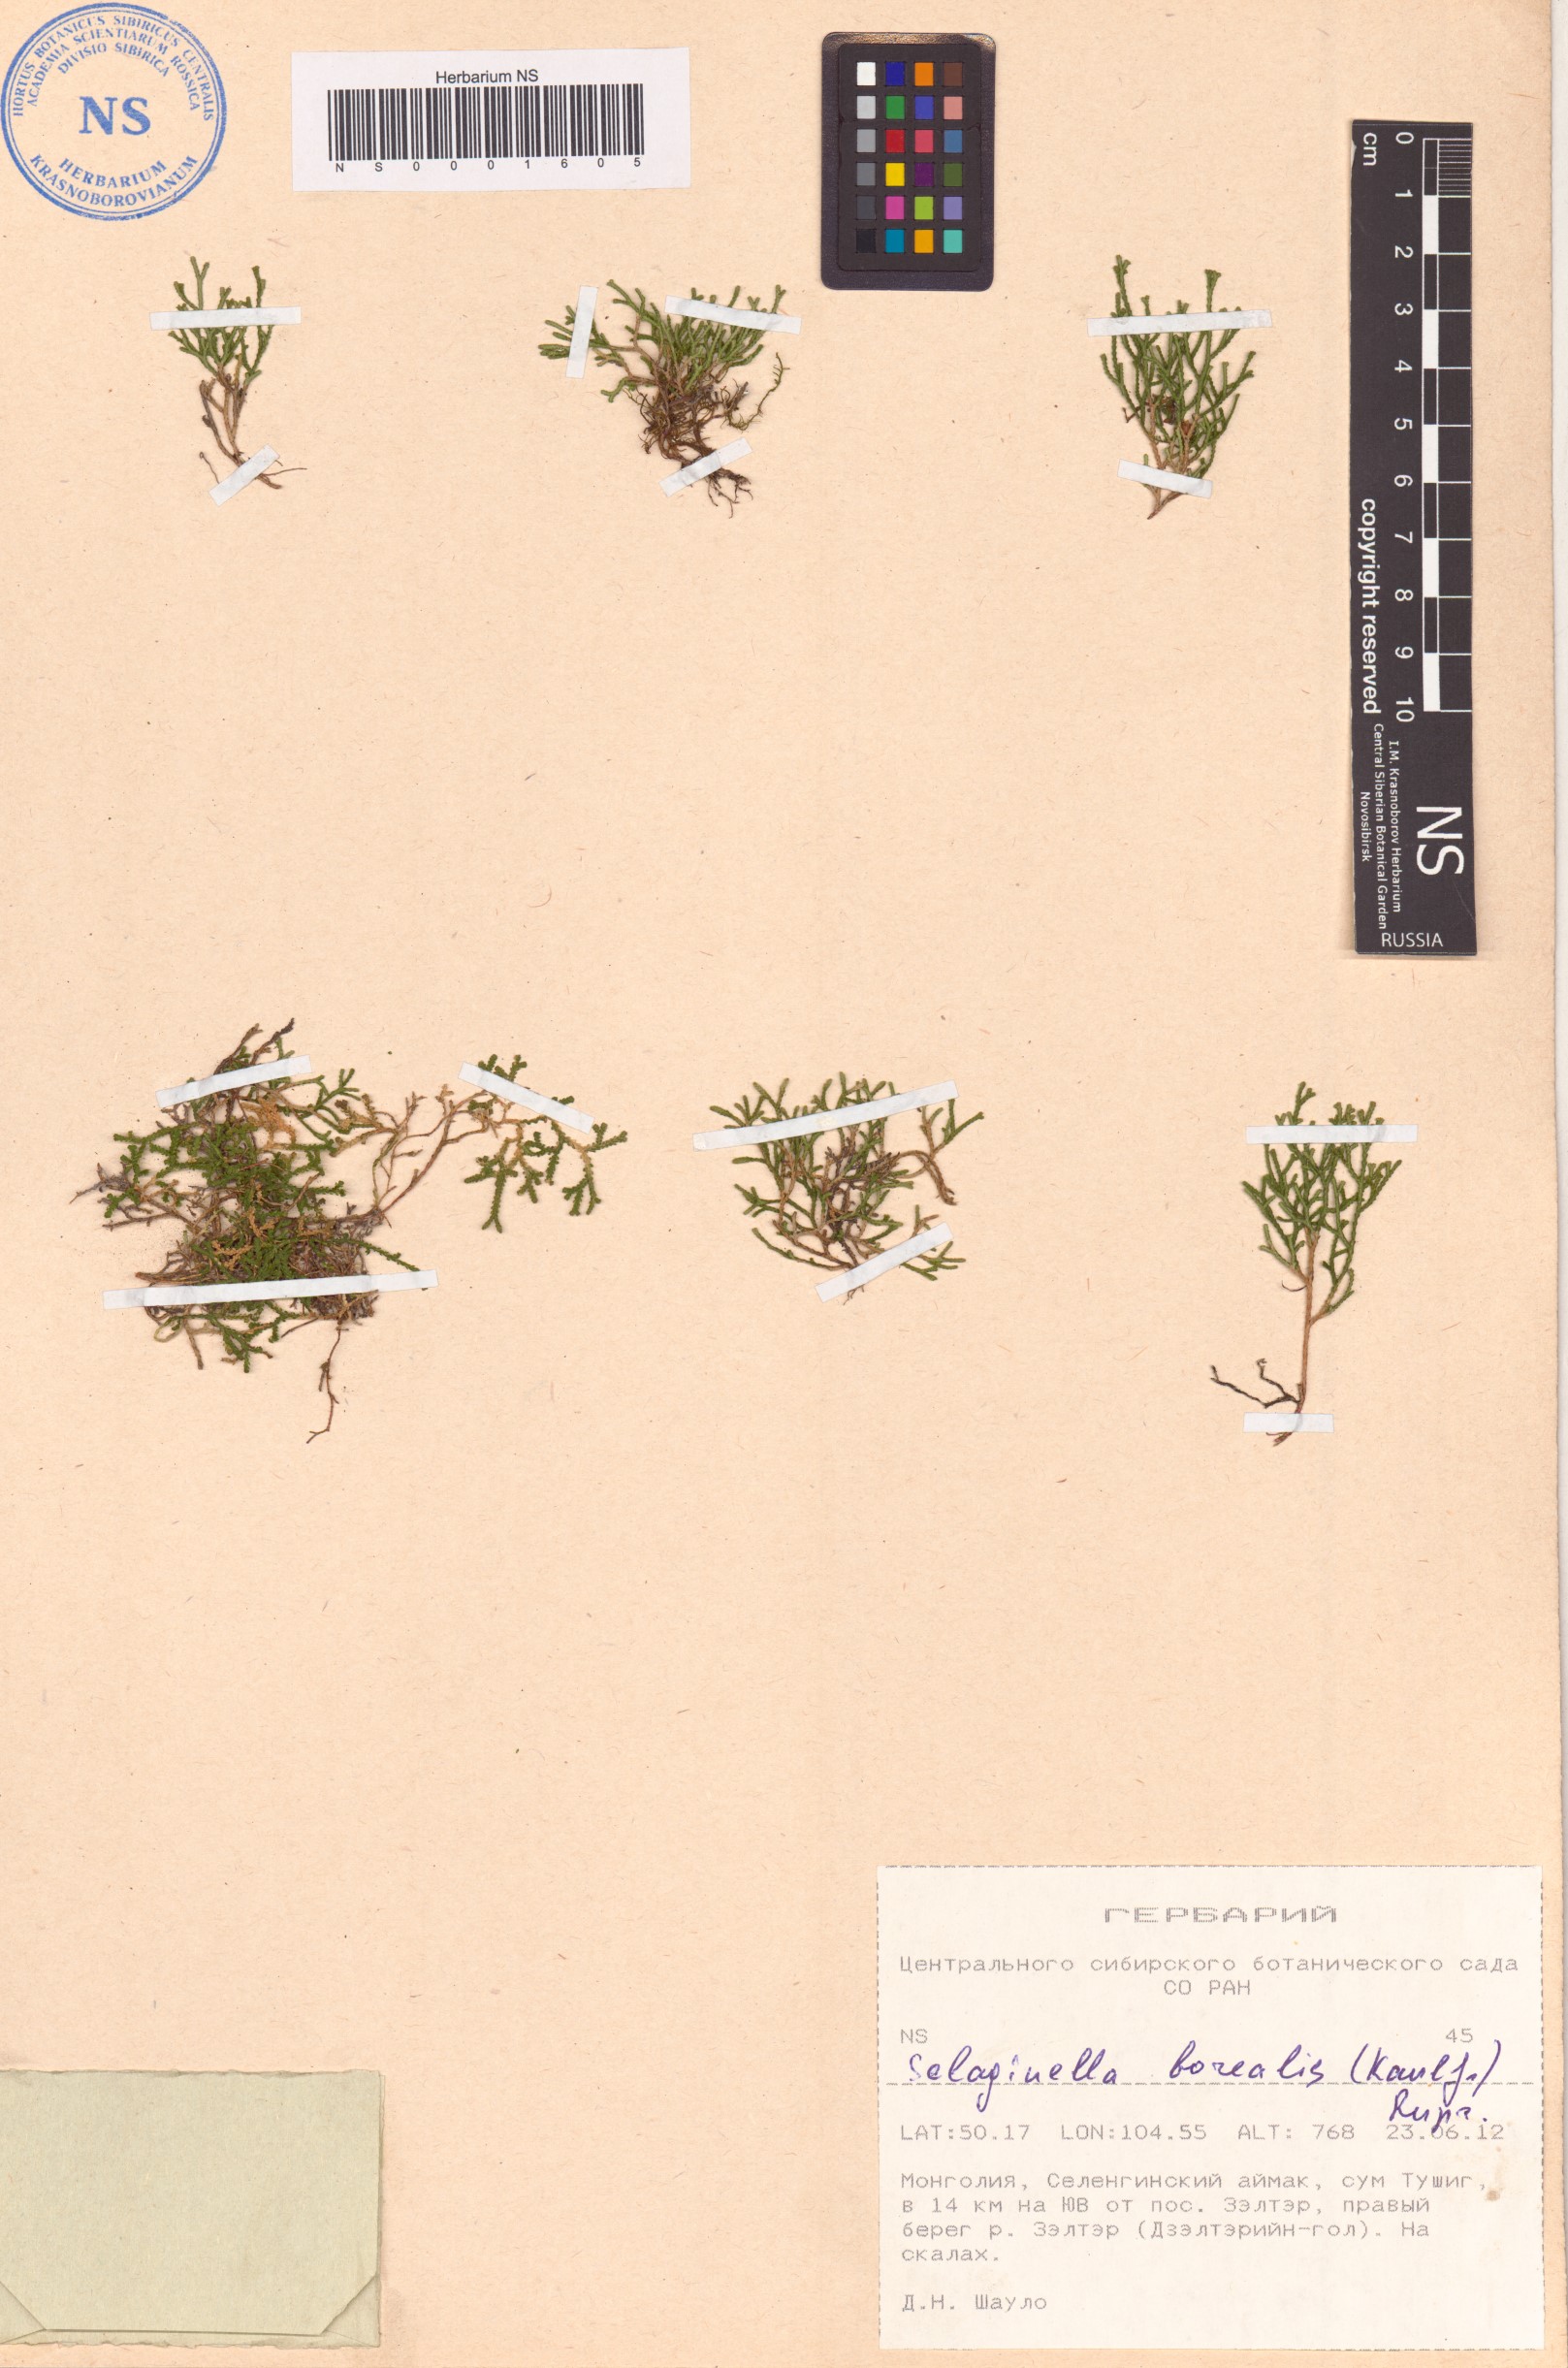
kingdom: Plantae
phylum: Tracheophyta
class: Lycopodiopsida
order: Selaginellales
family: Selaginellaceae
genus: Selaginella
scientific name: Selaginella borealis
